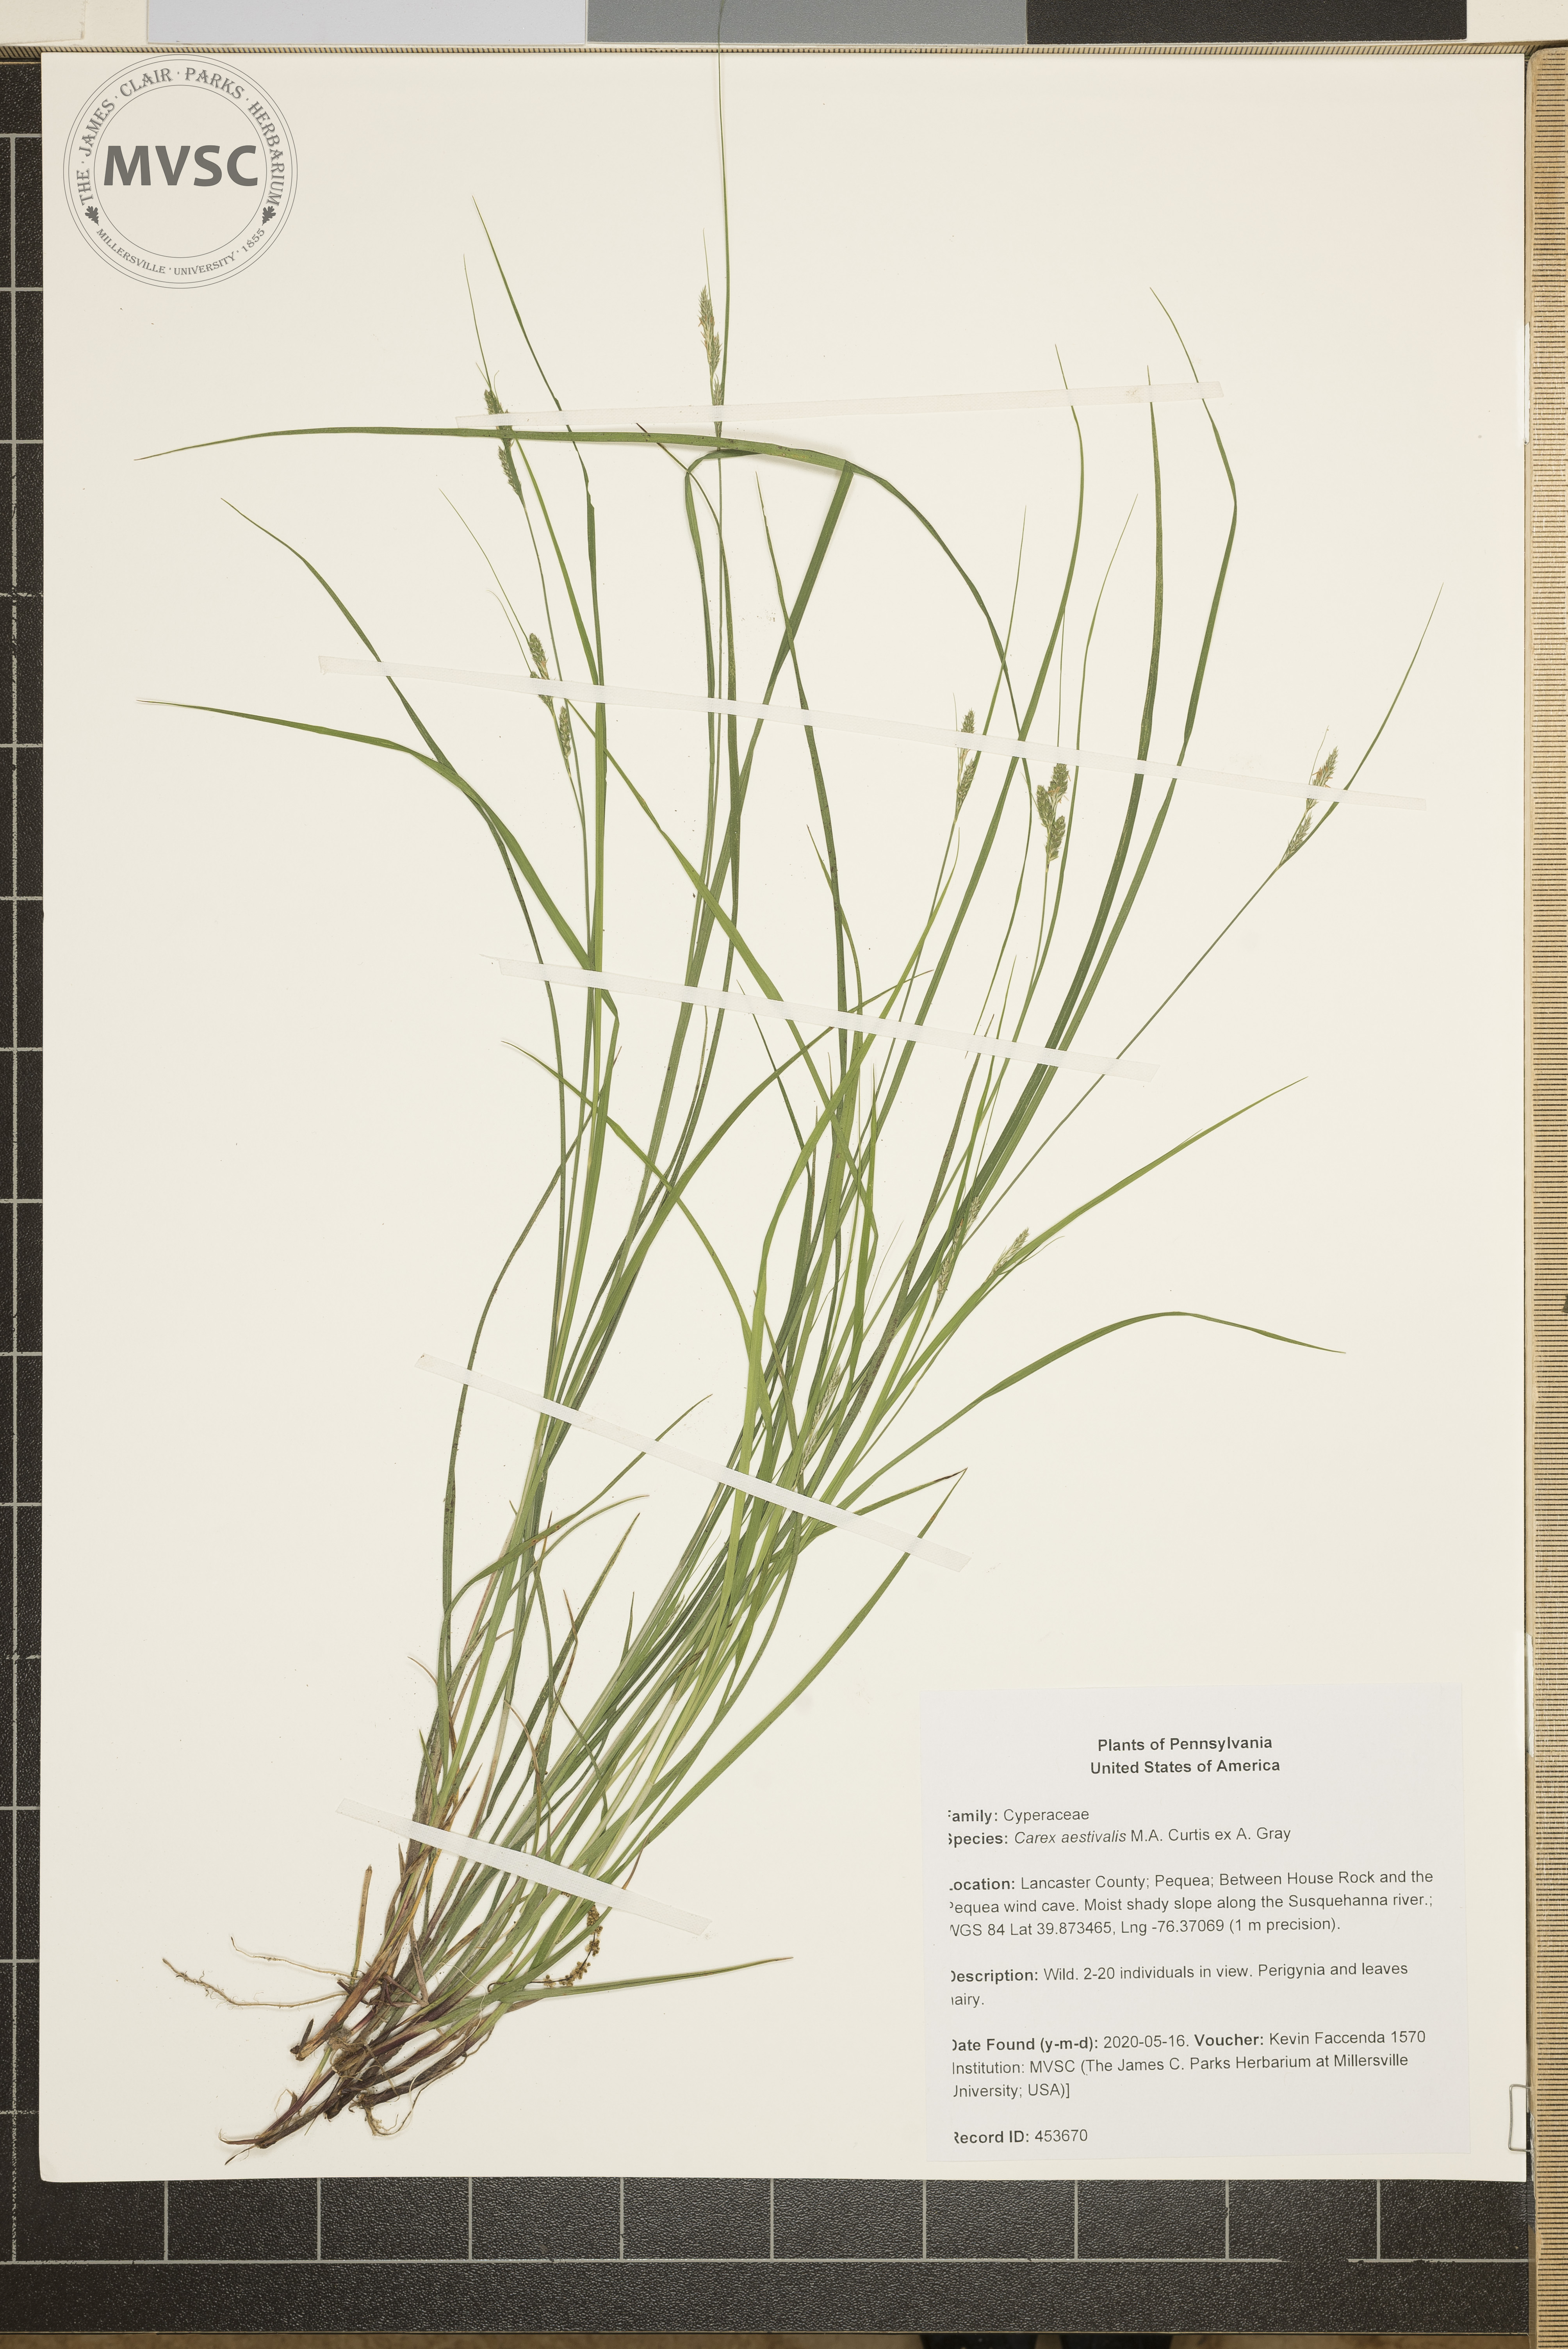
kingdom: Plantae
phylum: Tracheophyta
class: Liliopsida
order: Poales
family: Cyperaceae
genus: Carex
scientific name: Carex aestivalis
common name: Summer sedge
